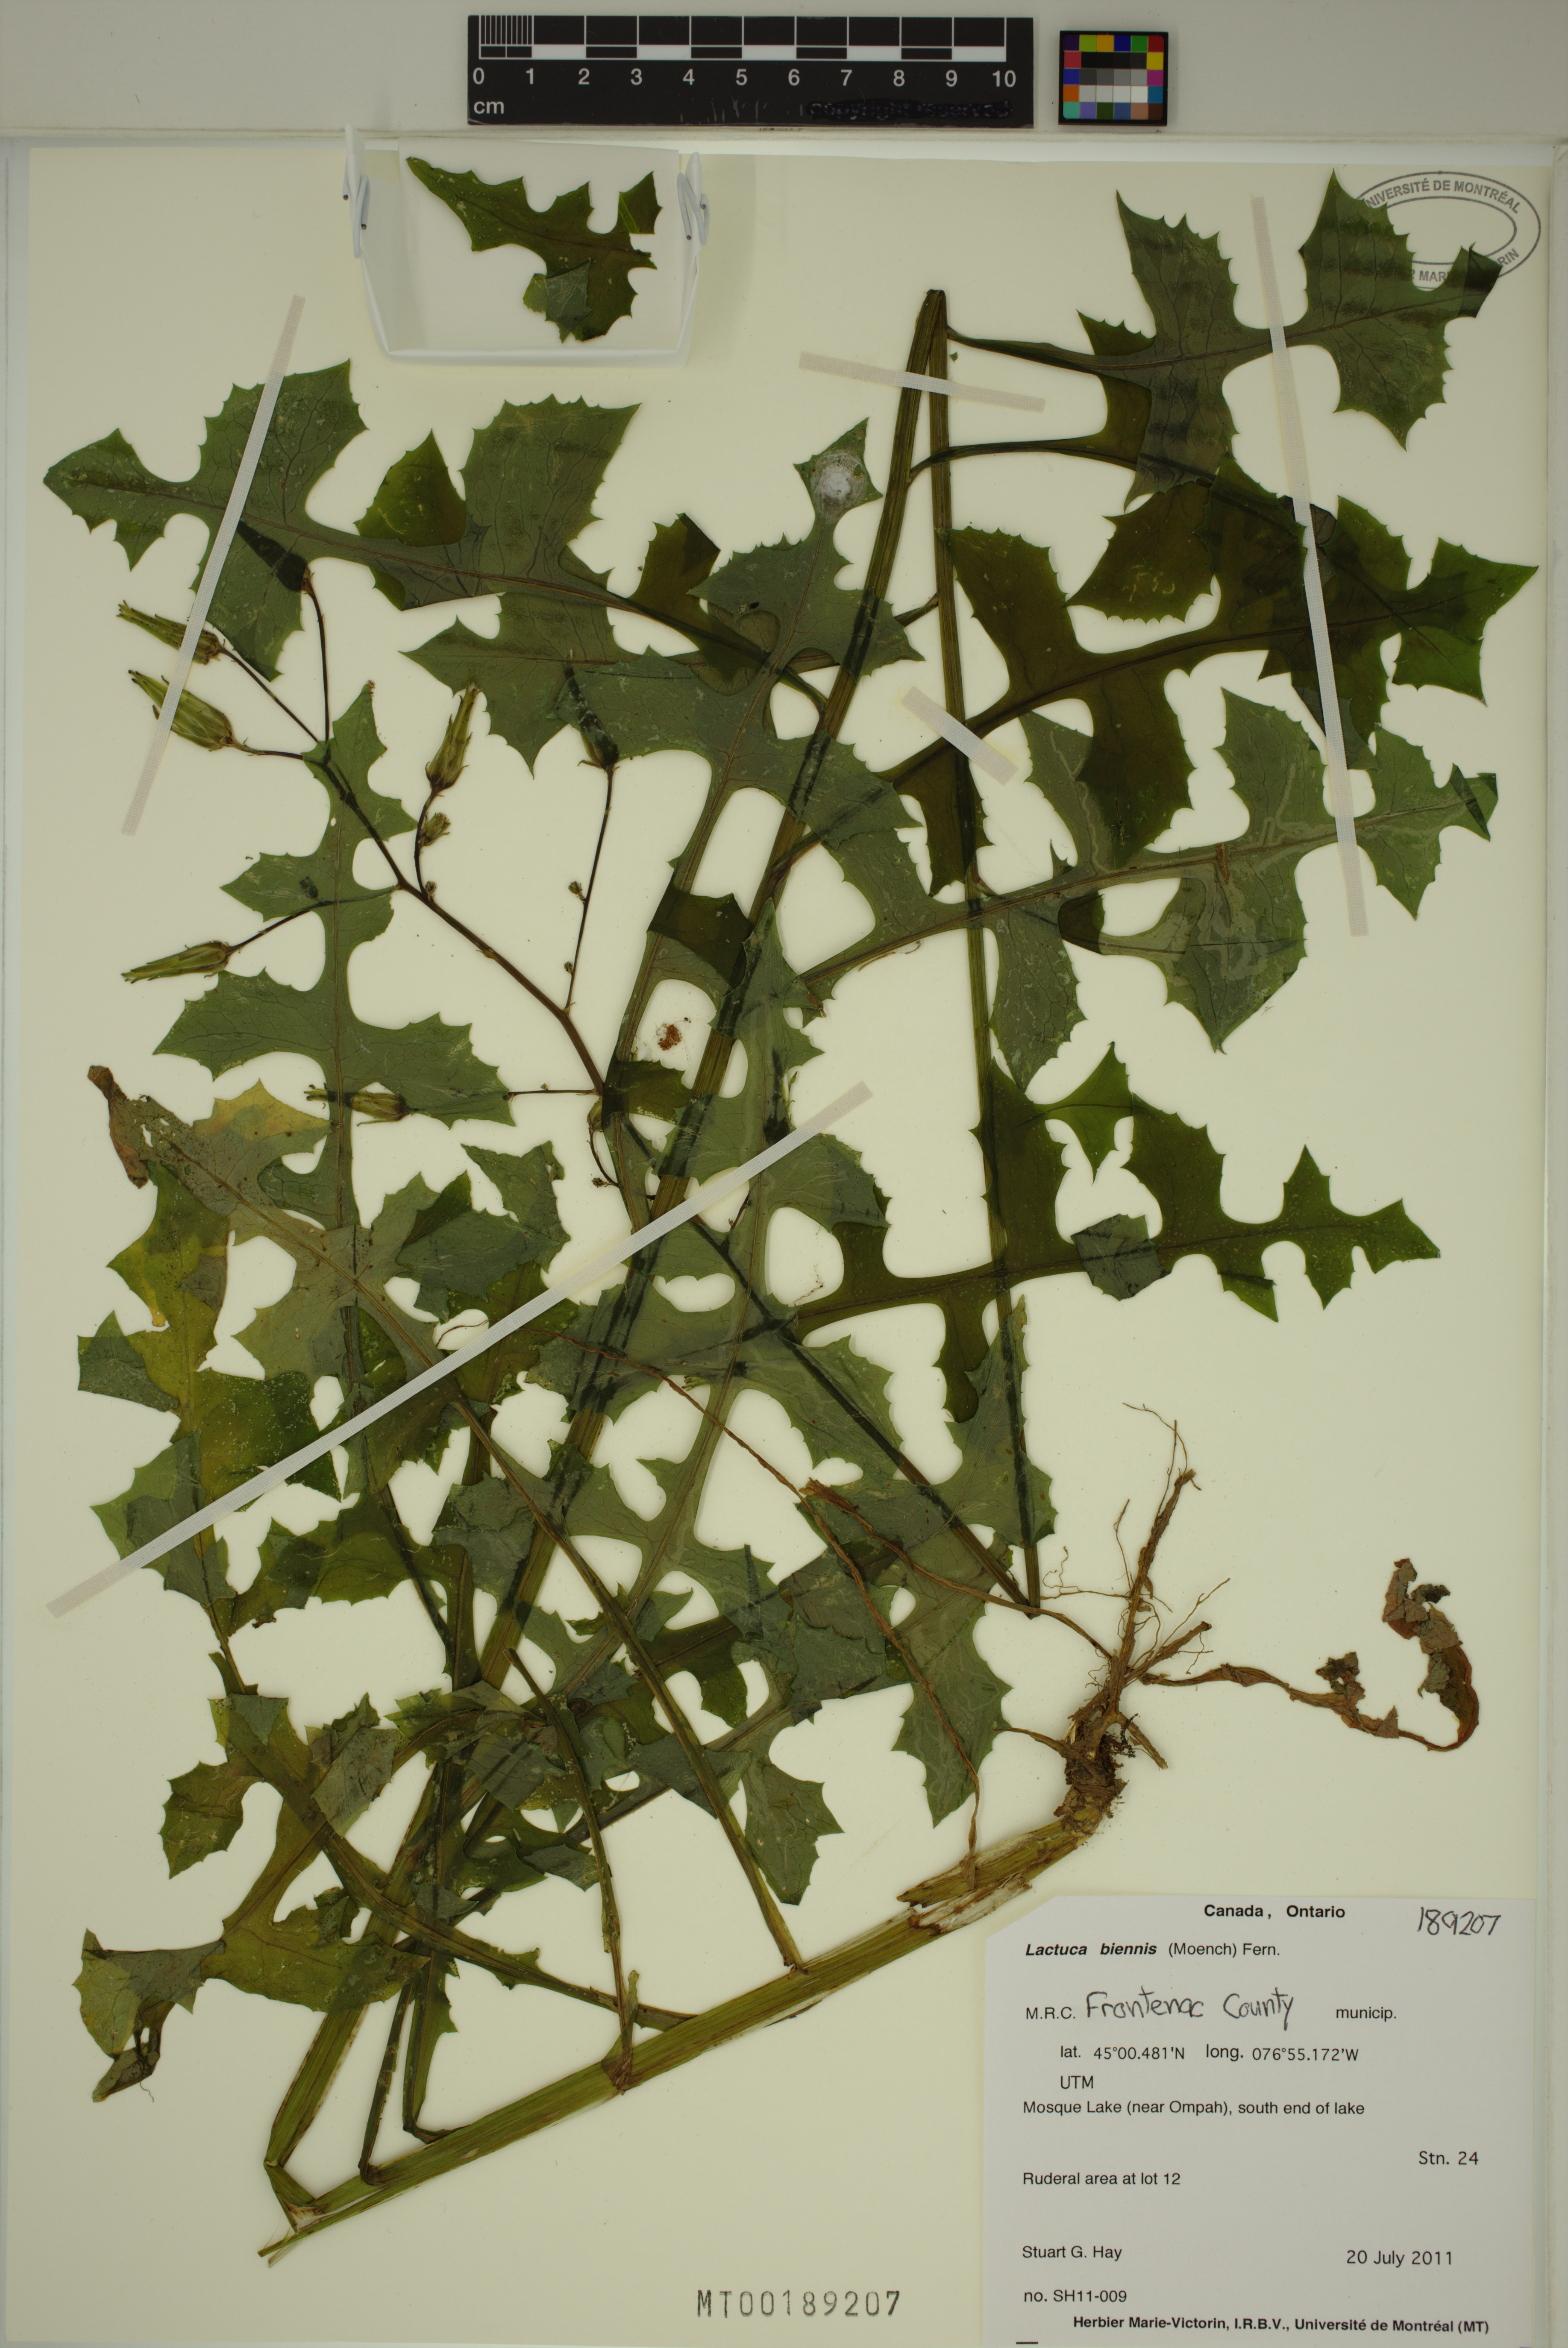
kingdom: Plantae
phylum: Tracheophyta
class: Magnoliopsida
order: Asterales
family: Asteraceae
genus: Lactuca
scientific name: Lactuca biennis
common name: Blue wood lettuce
